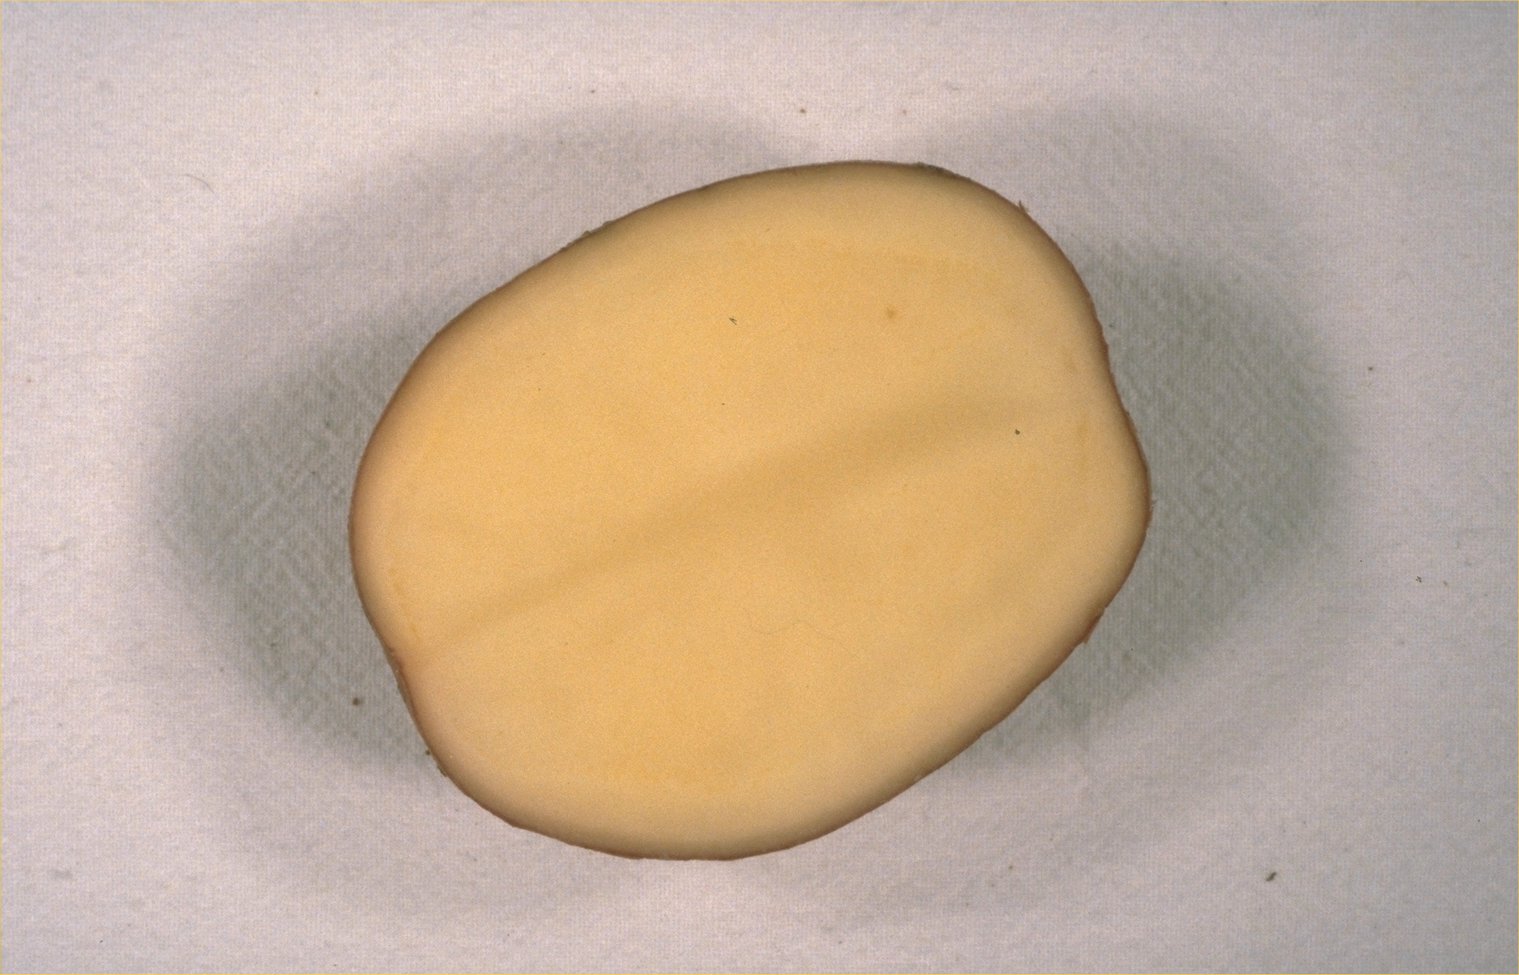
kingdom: Plantae
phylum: Tracheophyta
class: Magnoliopsida
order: Solanales
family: Solanaceae
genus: Solanum
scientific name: Solanum tuberosum
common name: Potato
